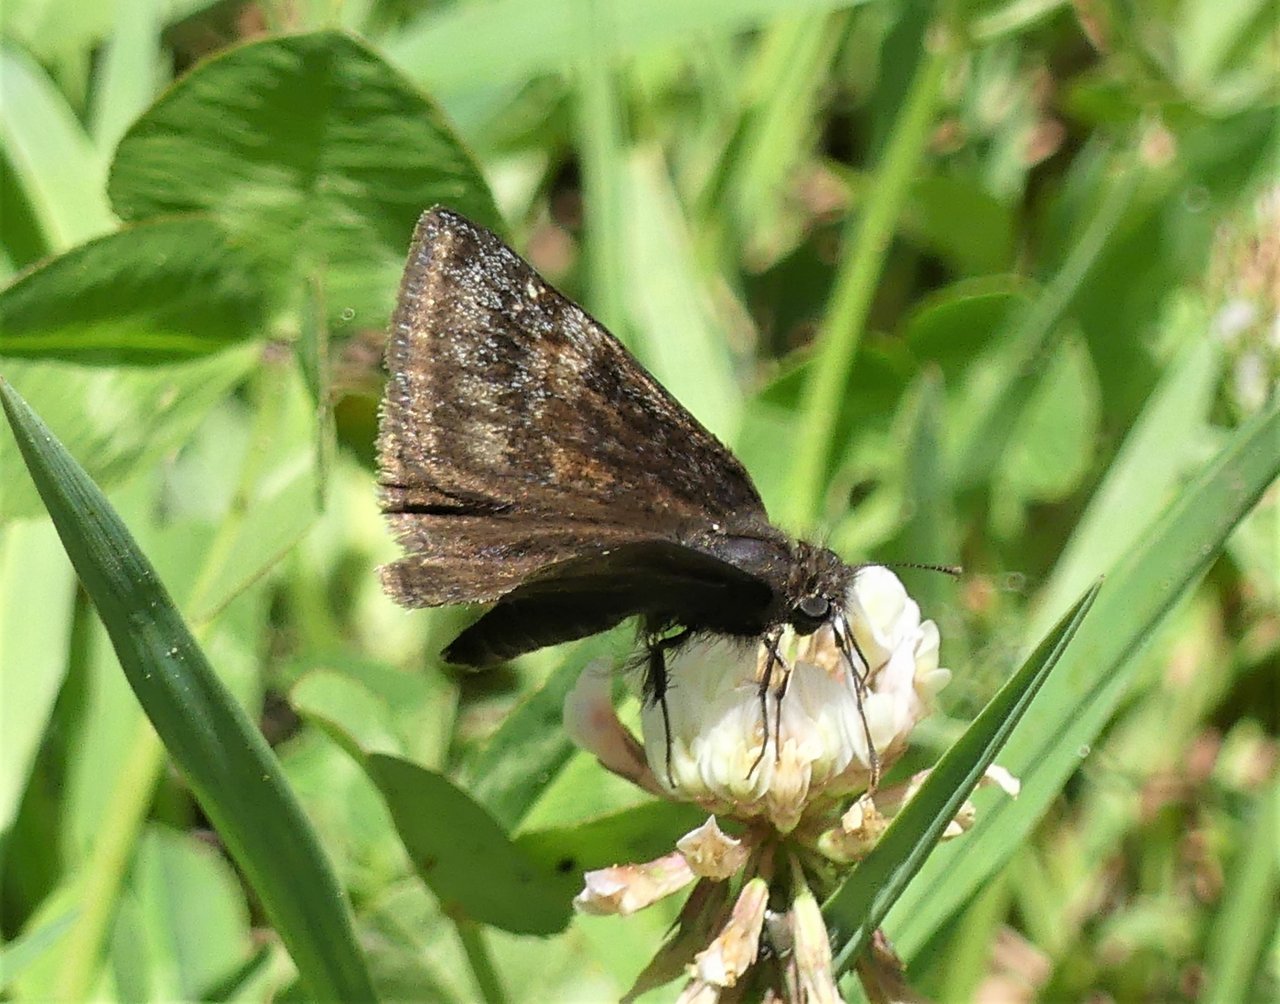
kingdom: Animalia
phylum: Arthropoda
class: Insecta
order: Lepidoptera
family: Hesperiidae
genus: Gesta
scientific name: Gesta
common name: Wild Indigo Duskywing
